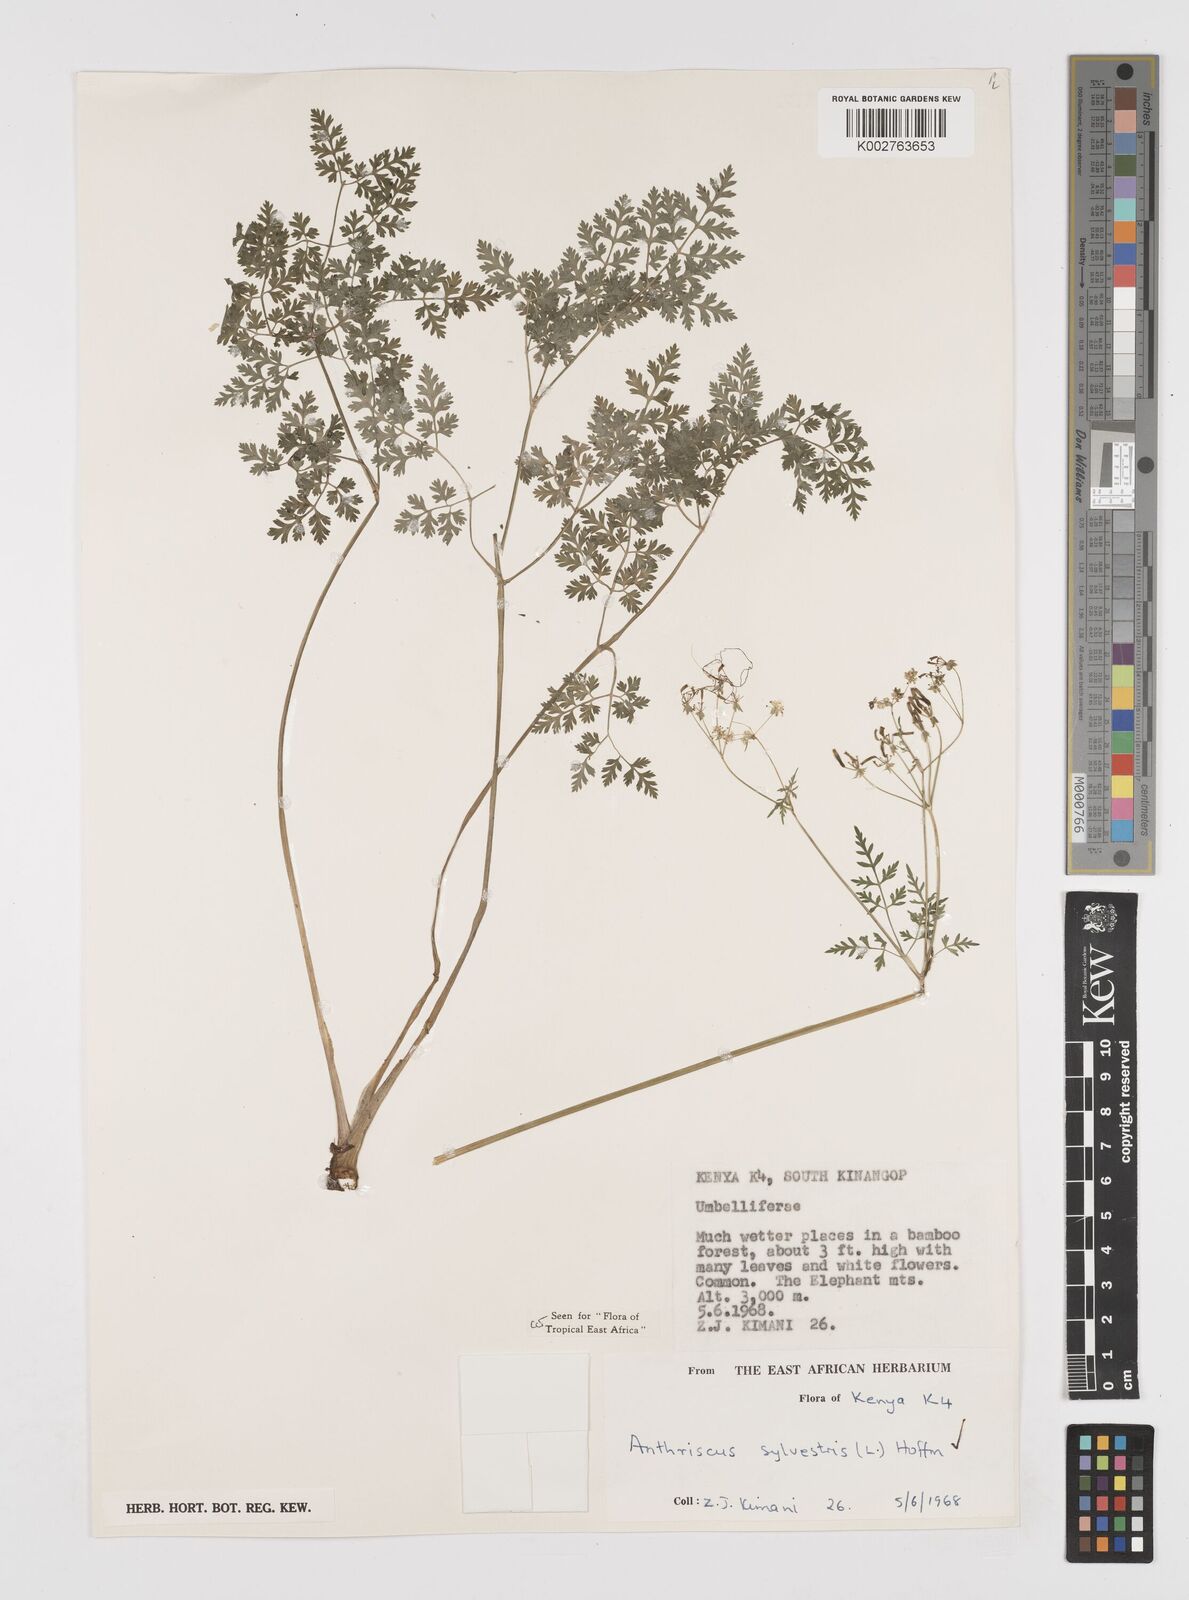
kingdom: Plantae
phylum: Tracheophyta
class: Magnoliopsida
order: Apiales
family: Apiaceae
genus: Anthriscus
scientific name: Anthriscus sylvestris
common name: Cow parsley
